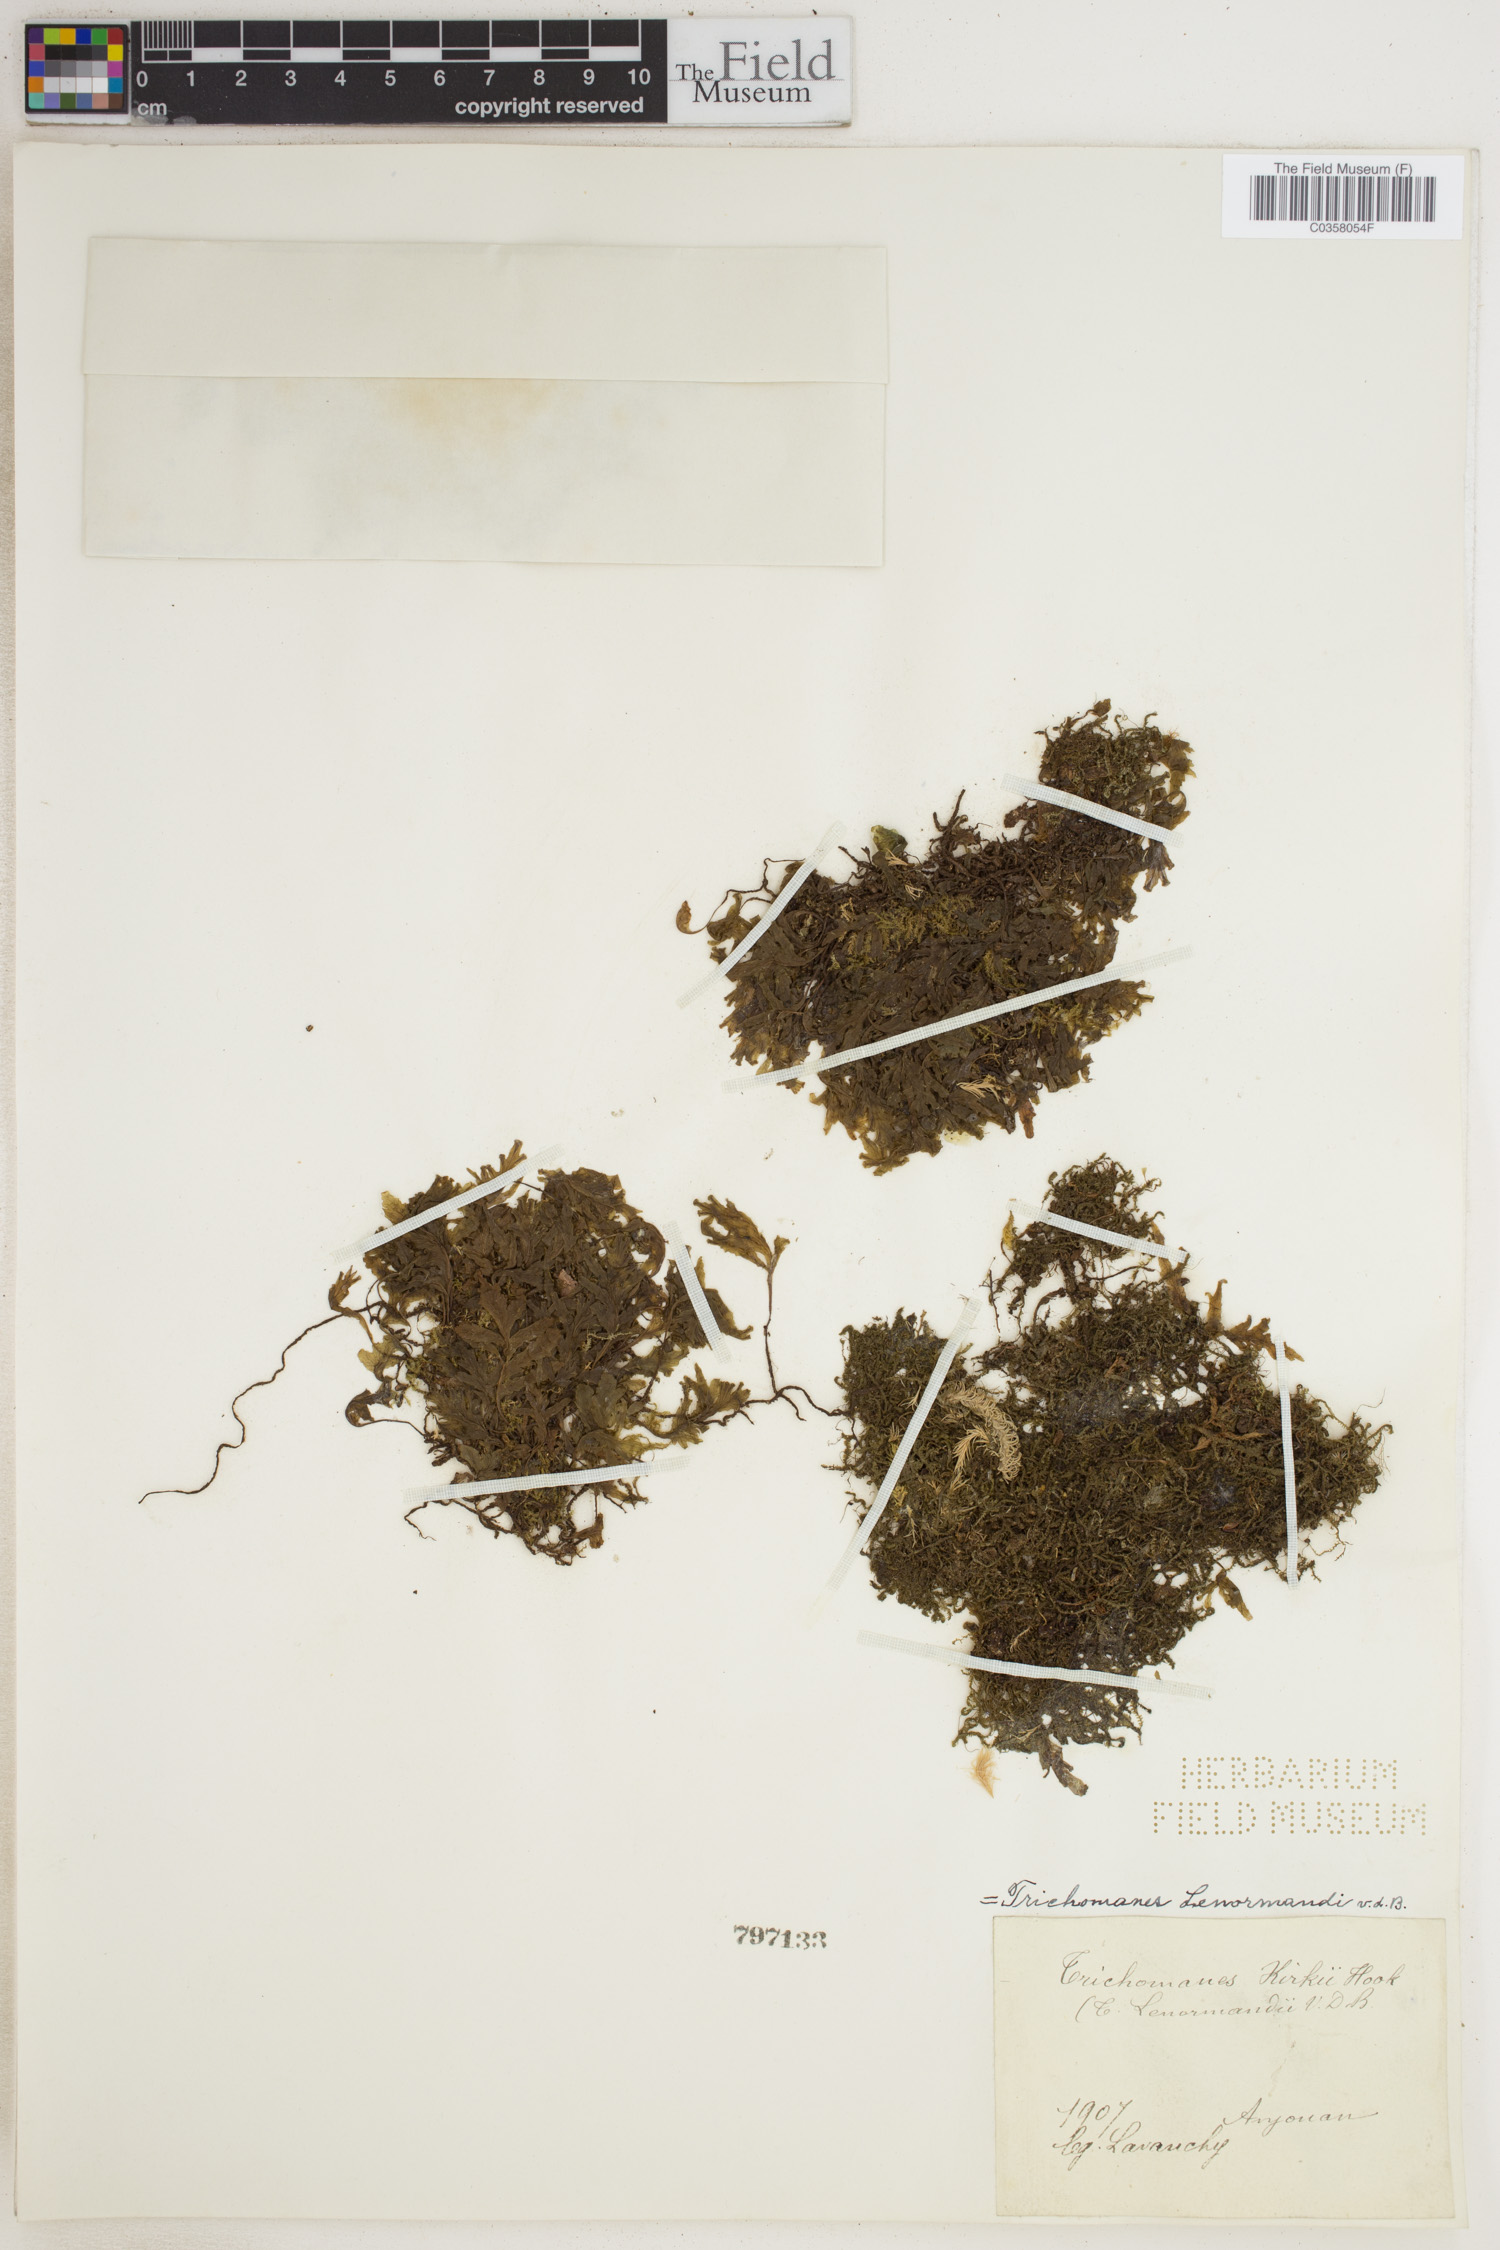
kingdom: Plantae
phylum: Tracheophyta
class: Polypodiopsida
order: Hymenophyllales
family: Hymenophyllaceae
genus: Didymoglossum
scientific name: Didymoglossum lenormandii
